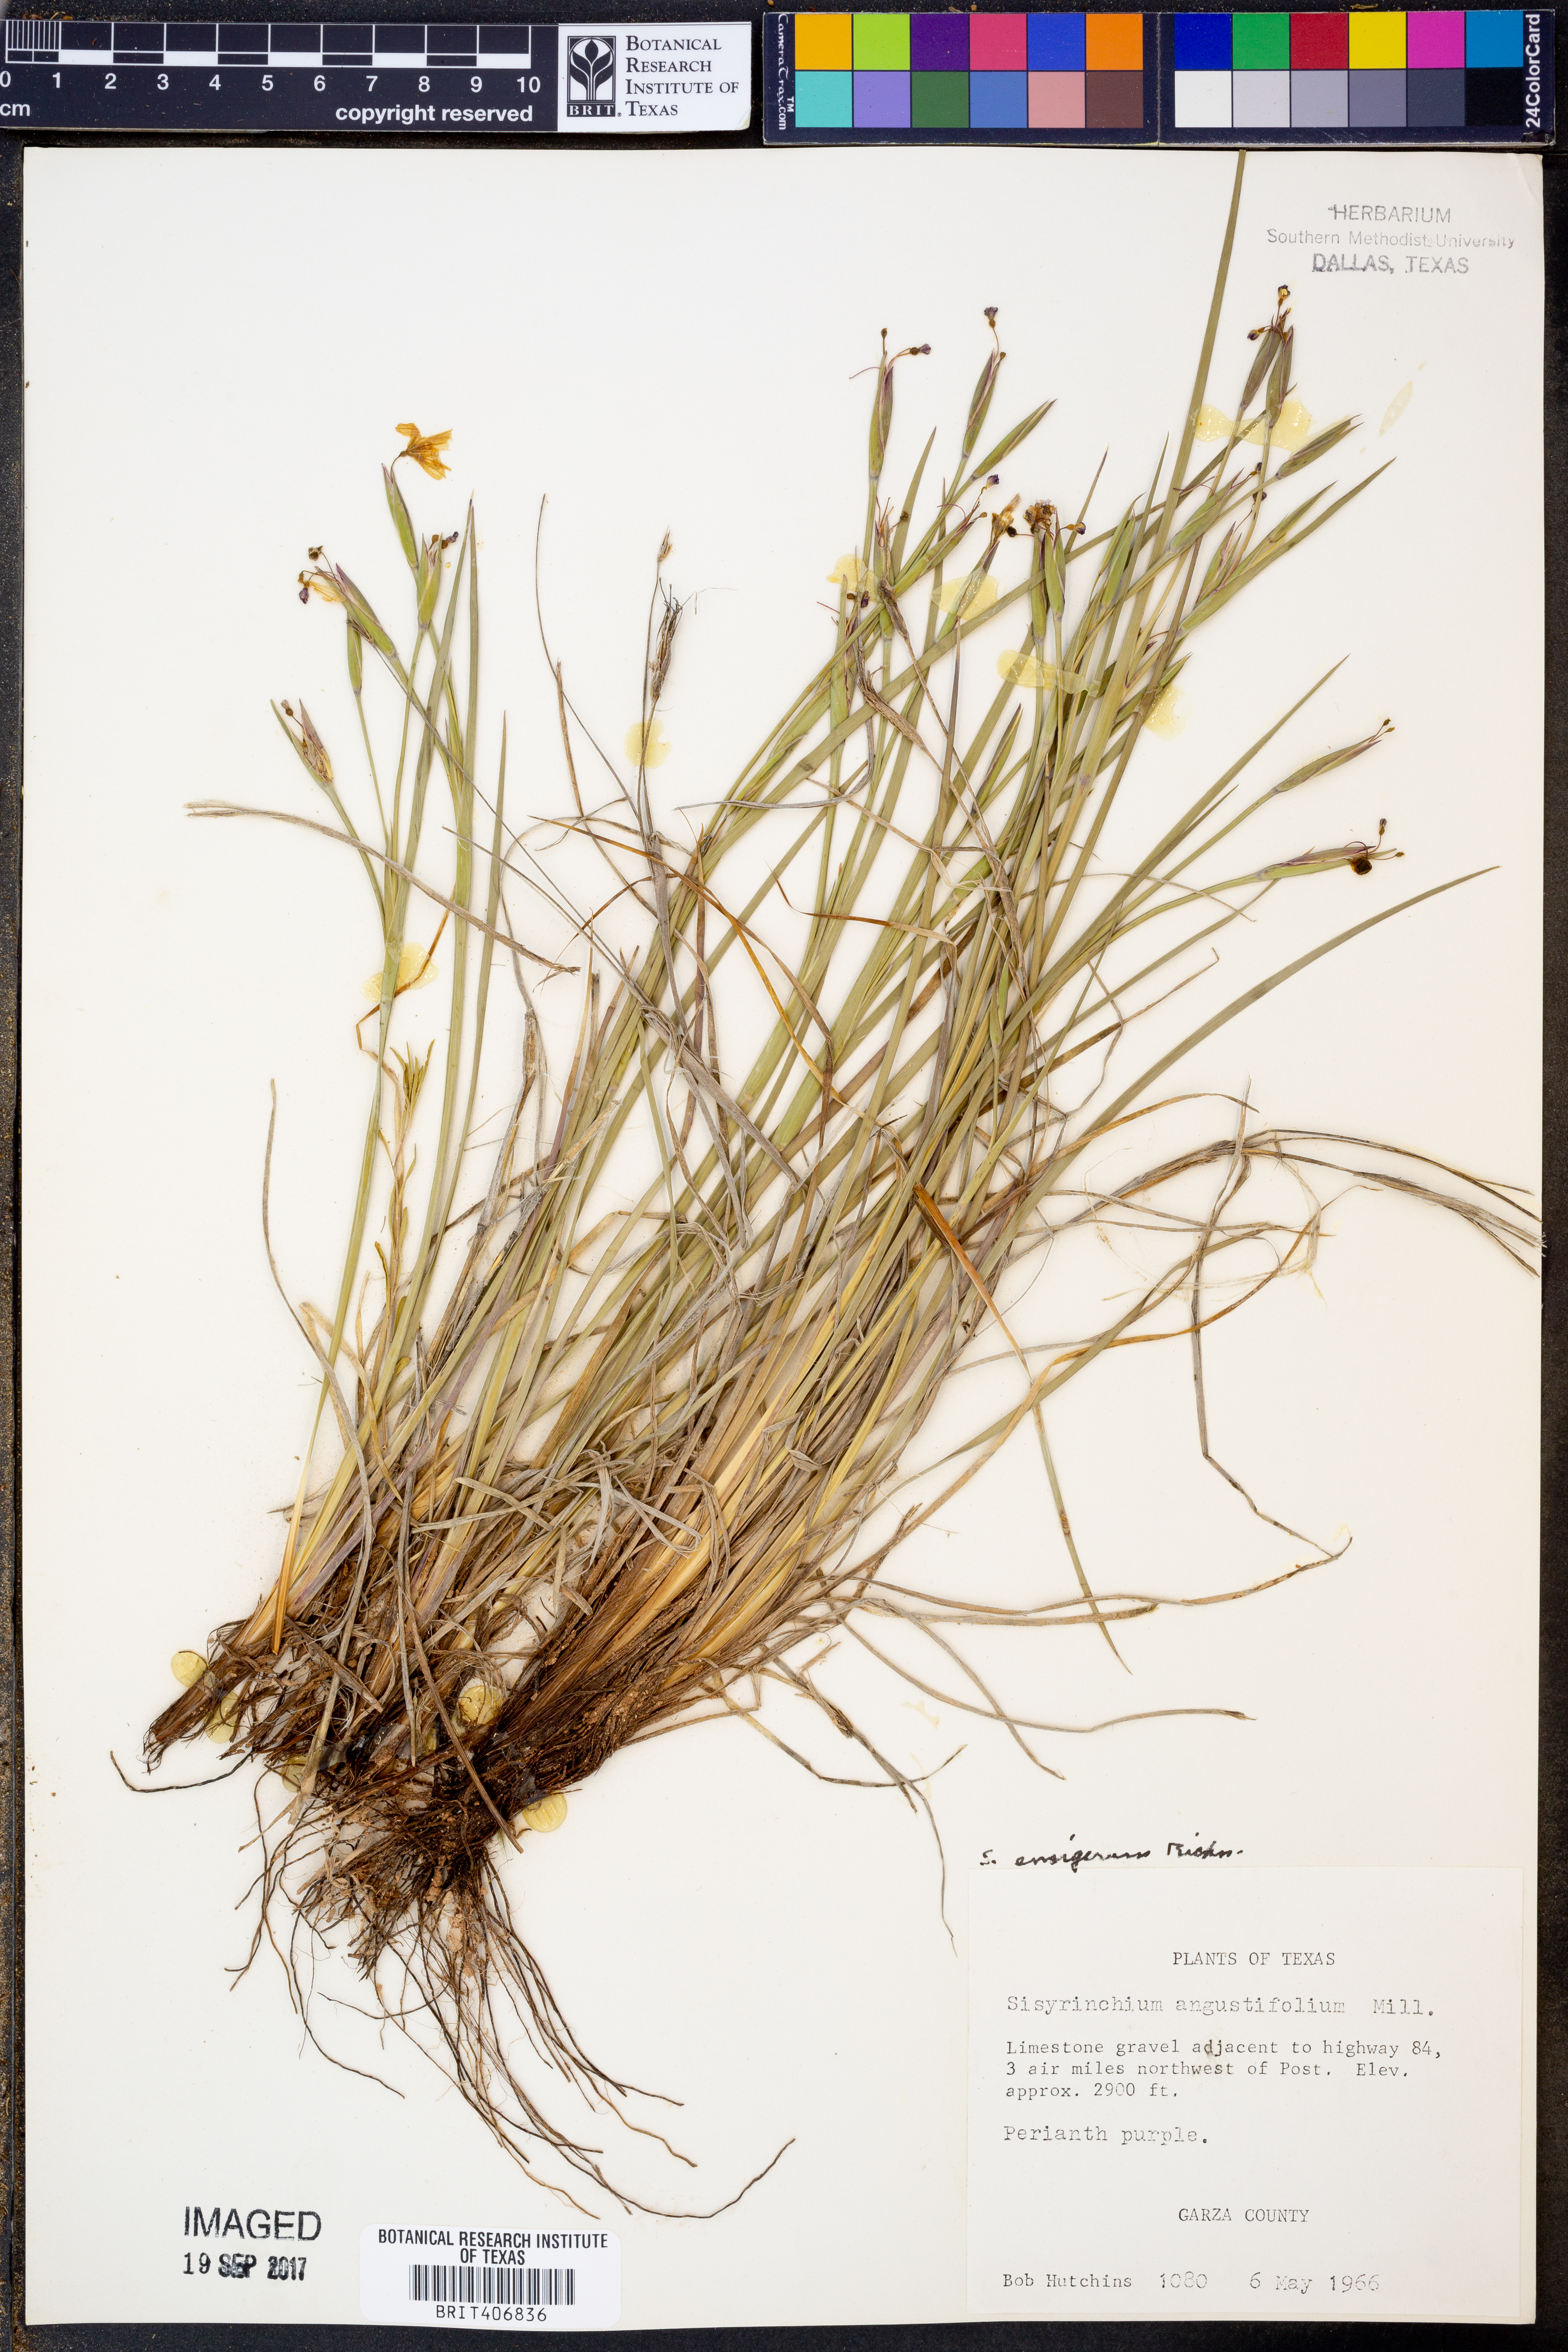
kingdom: Plantae
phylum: Tracheophyta
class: Liliopsida
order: Asparagales
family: Iridaceae
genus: Sisyrinchium
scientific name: Sisyrinchium ensigerum
